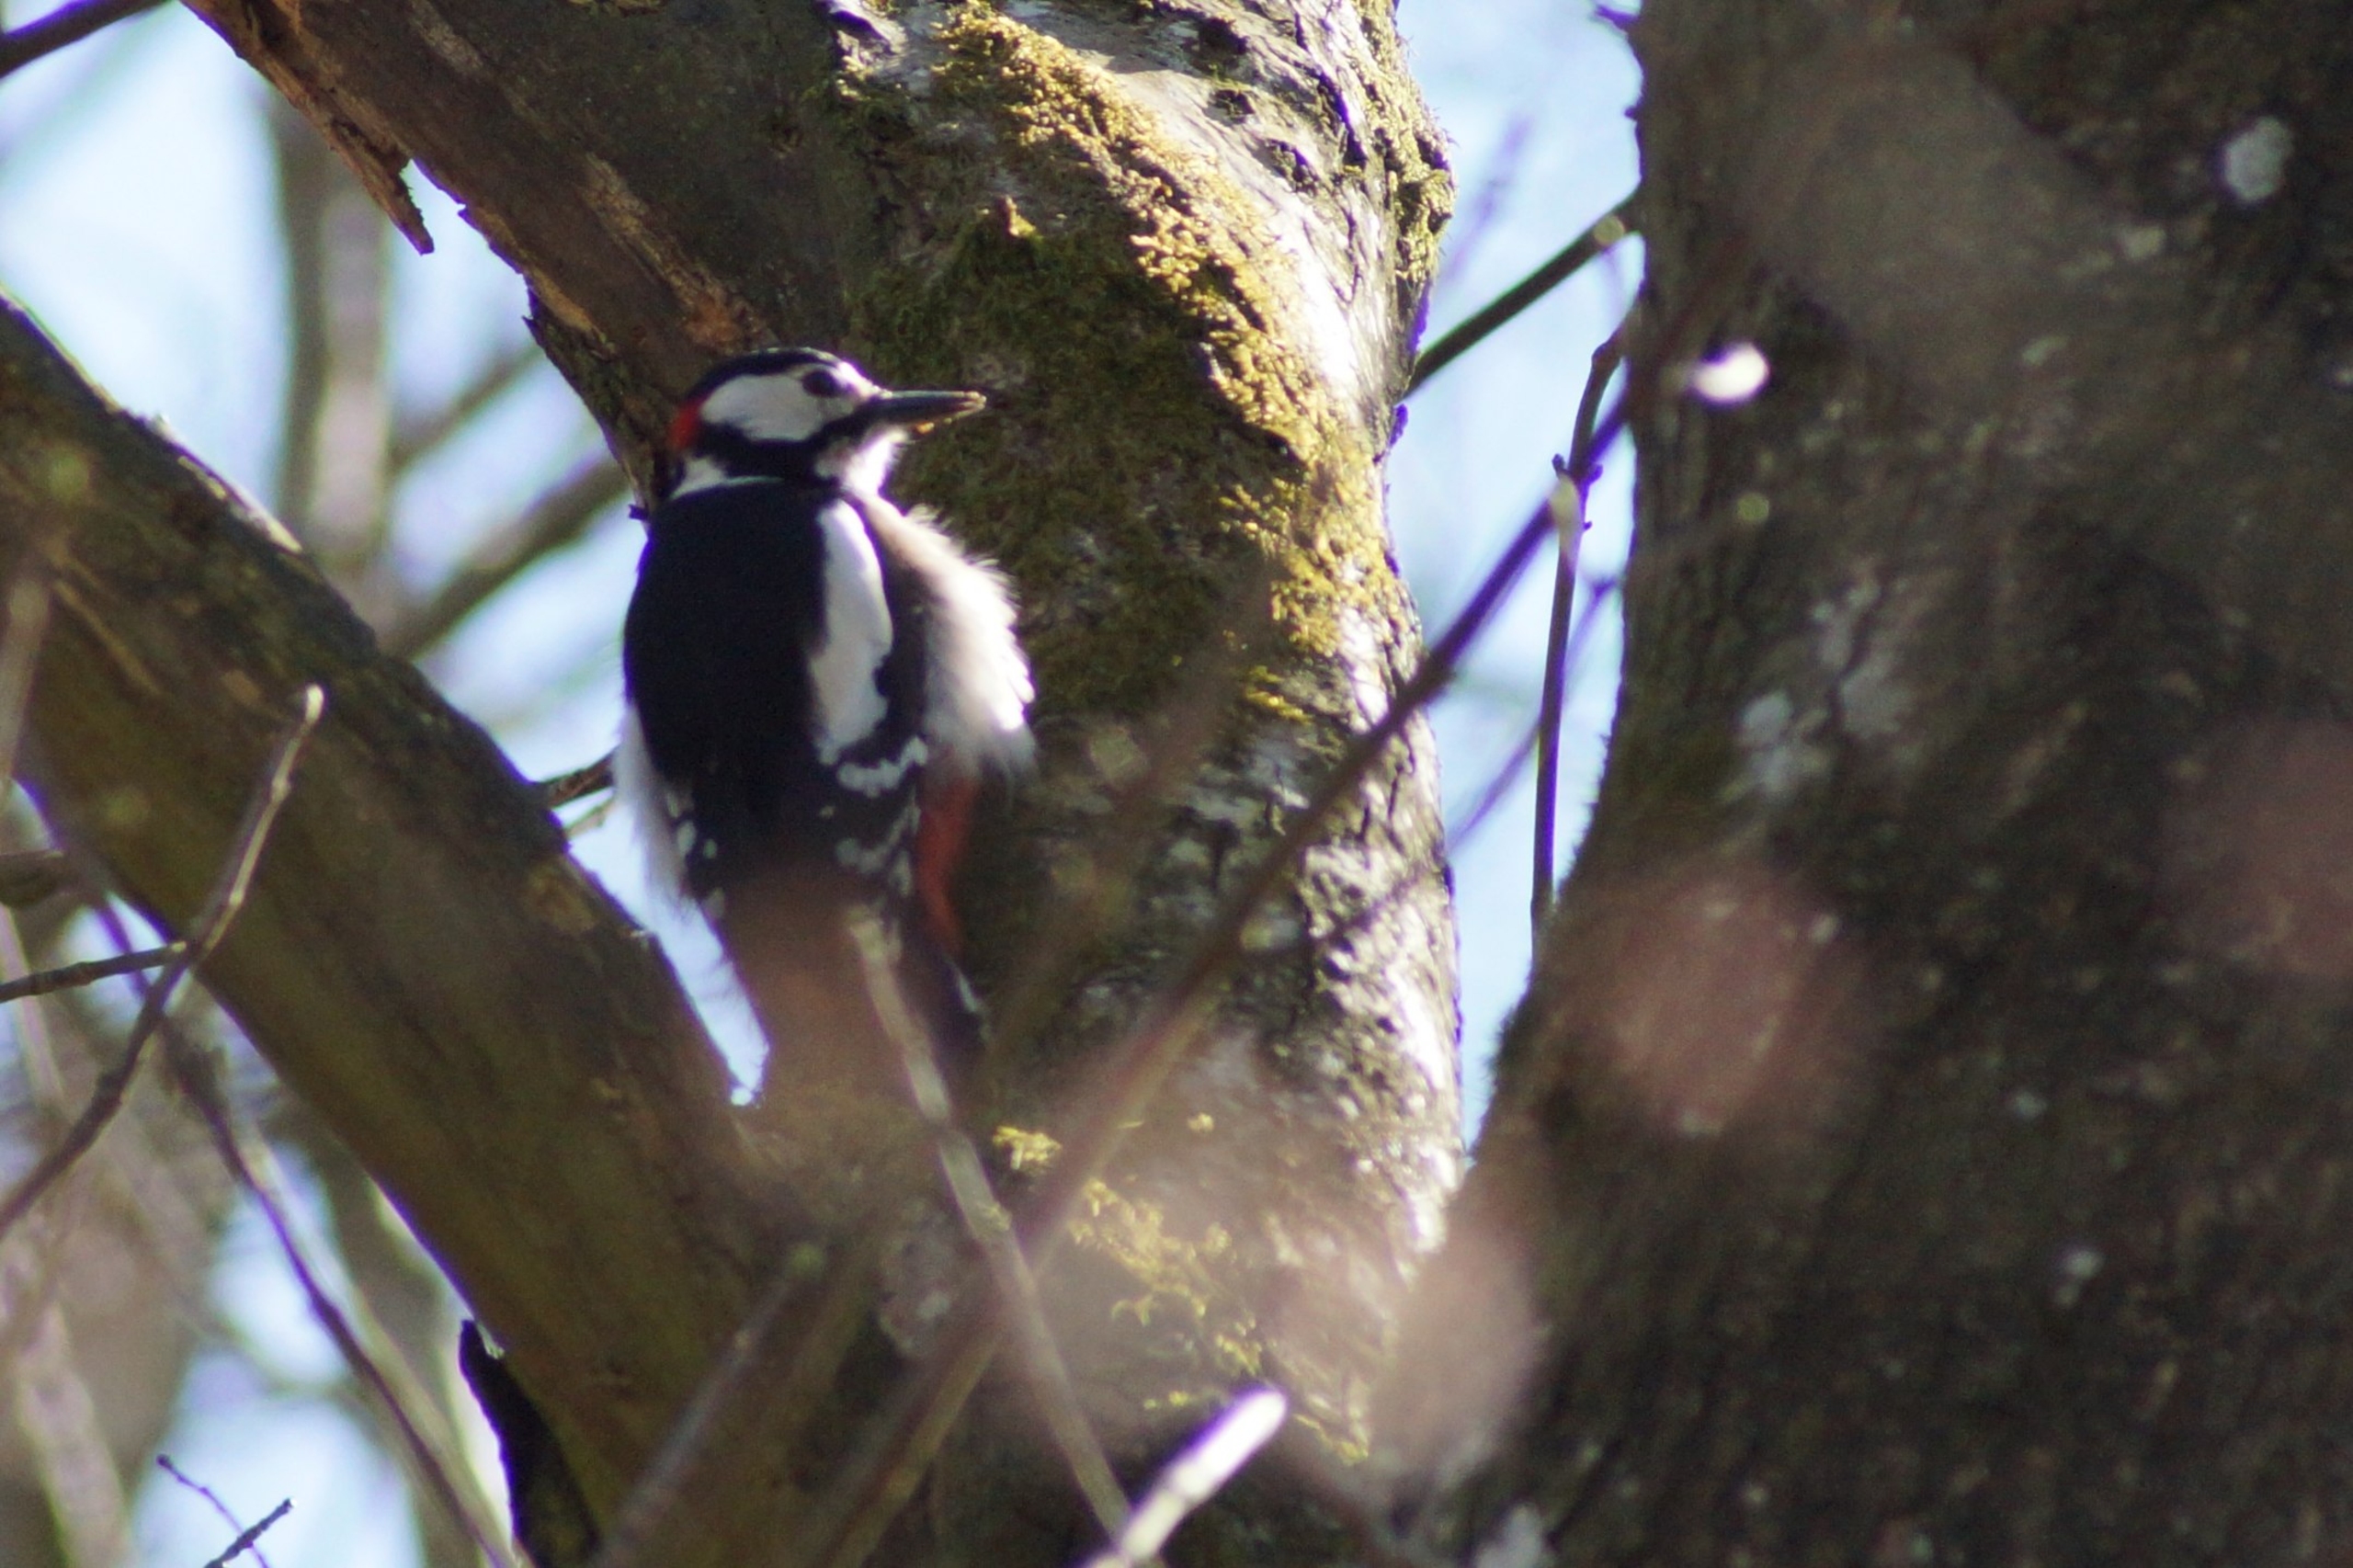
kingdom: Animalia
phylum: Chordata
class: Aves
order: Piciformes
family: Picidae
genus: Dendrocopos
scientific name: Dendrocopos major
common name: Stor flagspætte
